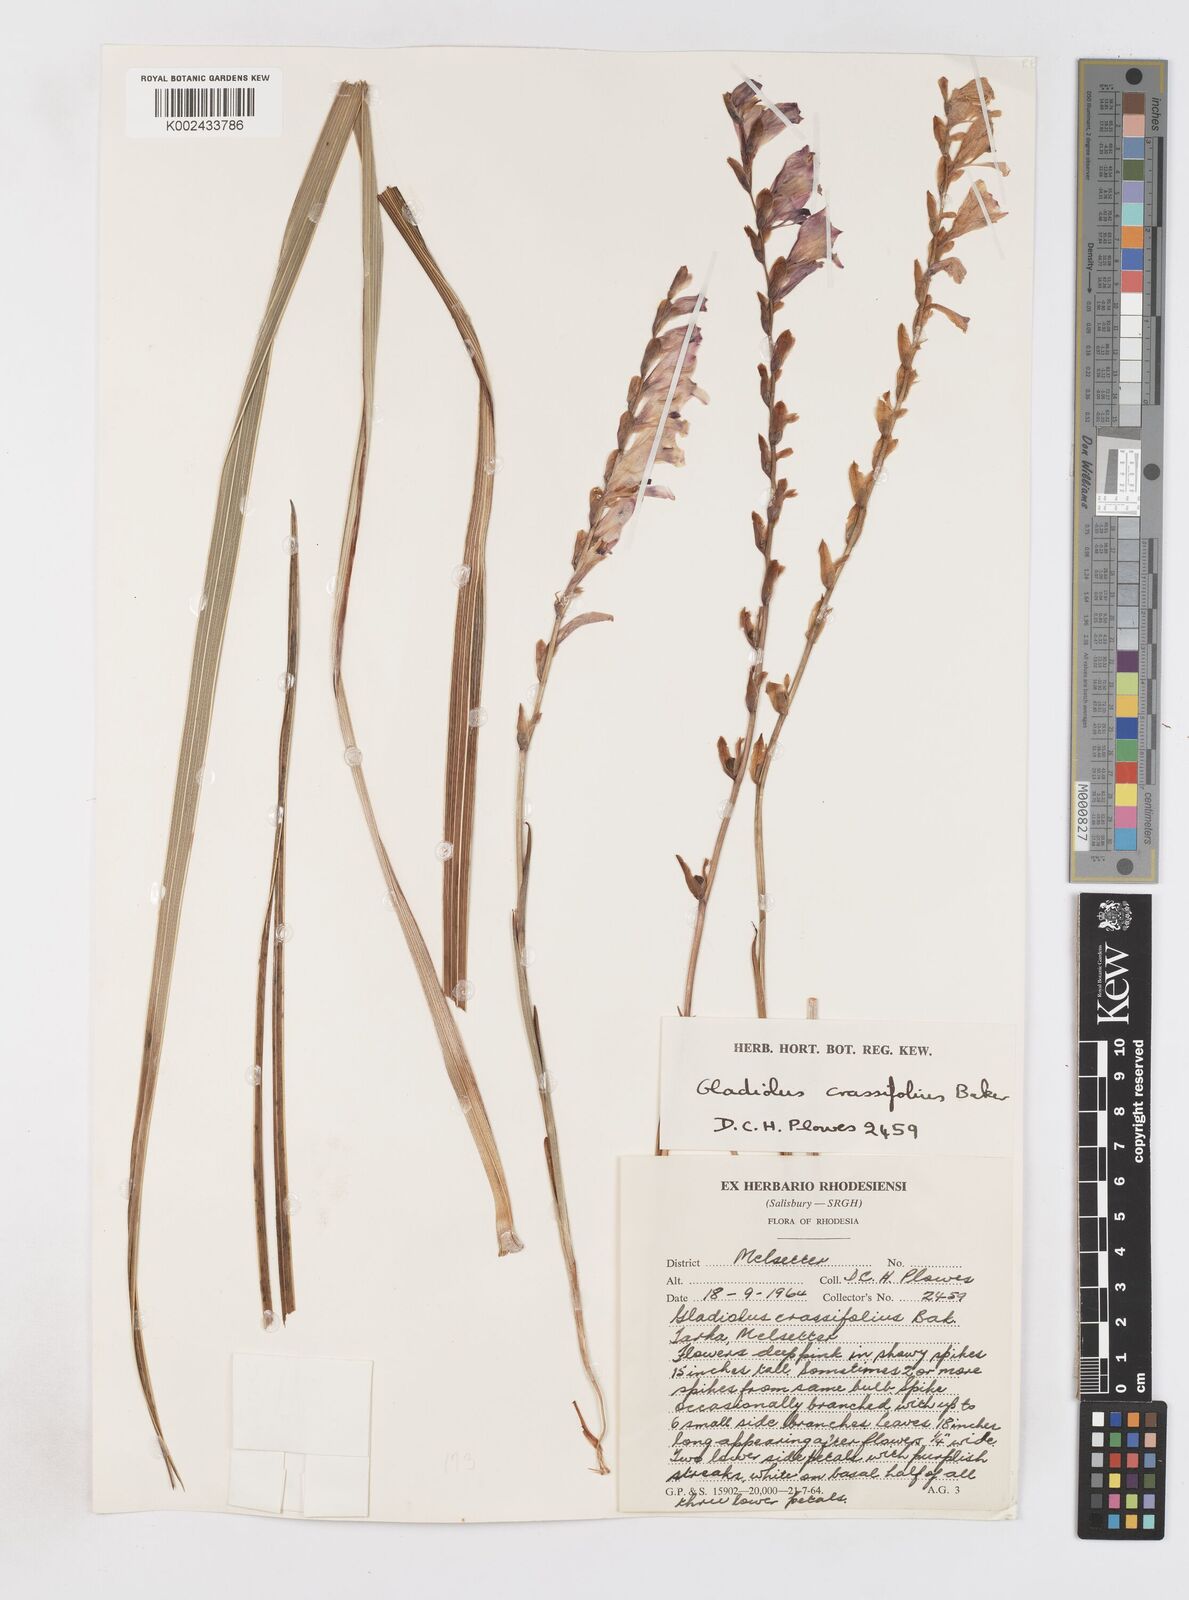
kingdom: Plantae
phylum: Tracheophyta
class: Liliopsida
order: Asparagales
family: Iridaceae
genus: Gladiolus
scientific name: Gladiolus crassifolius
